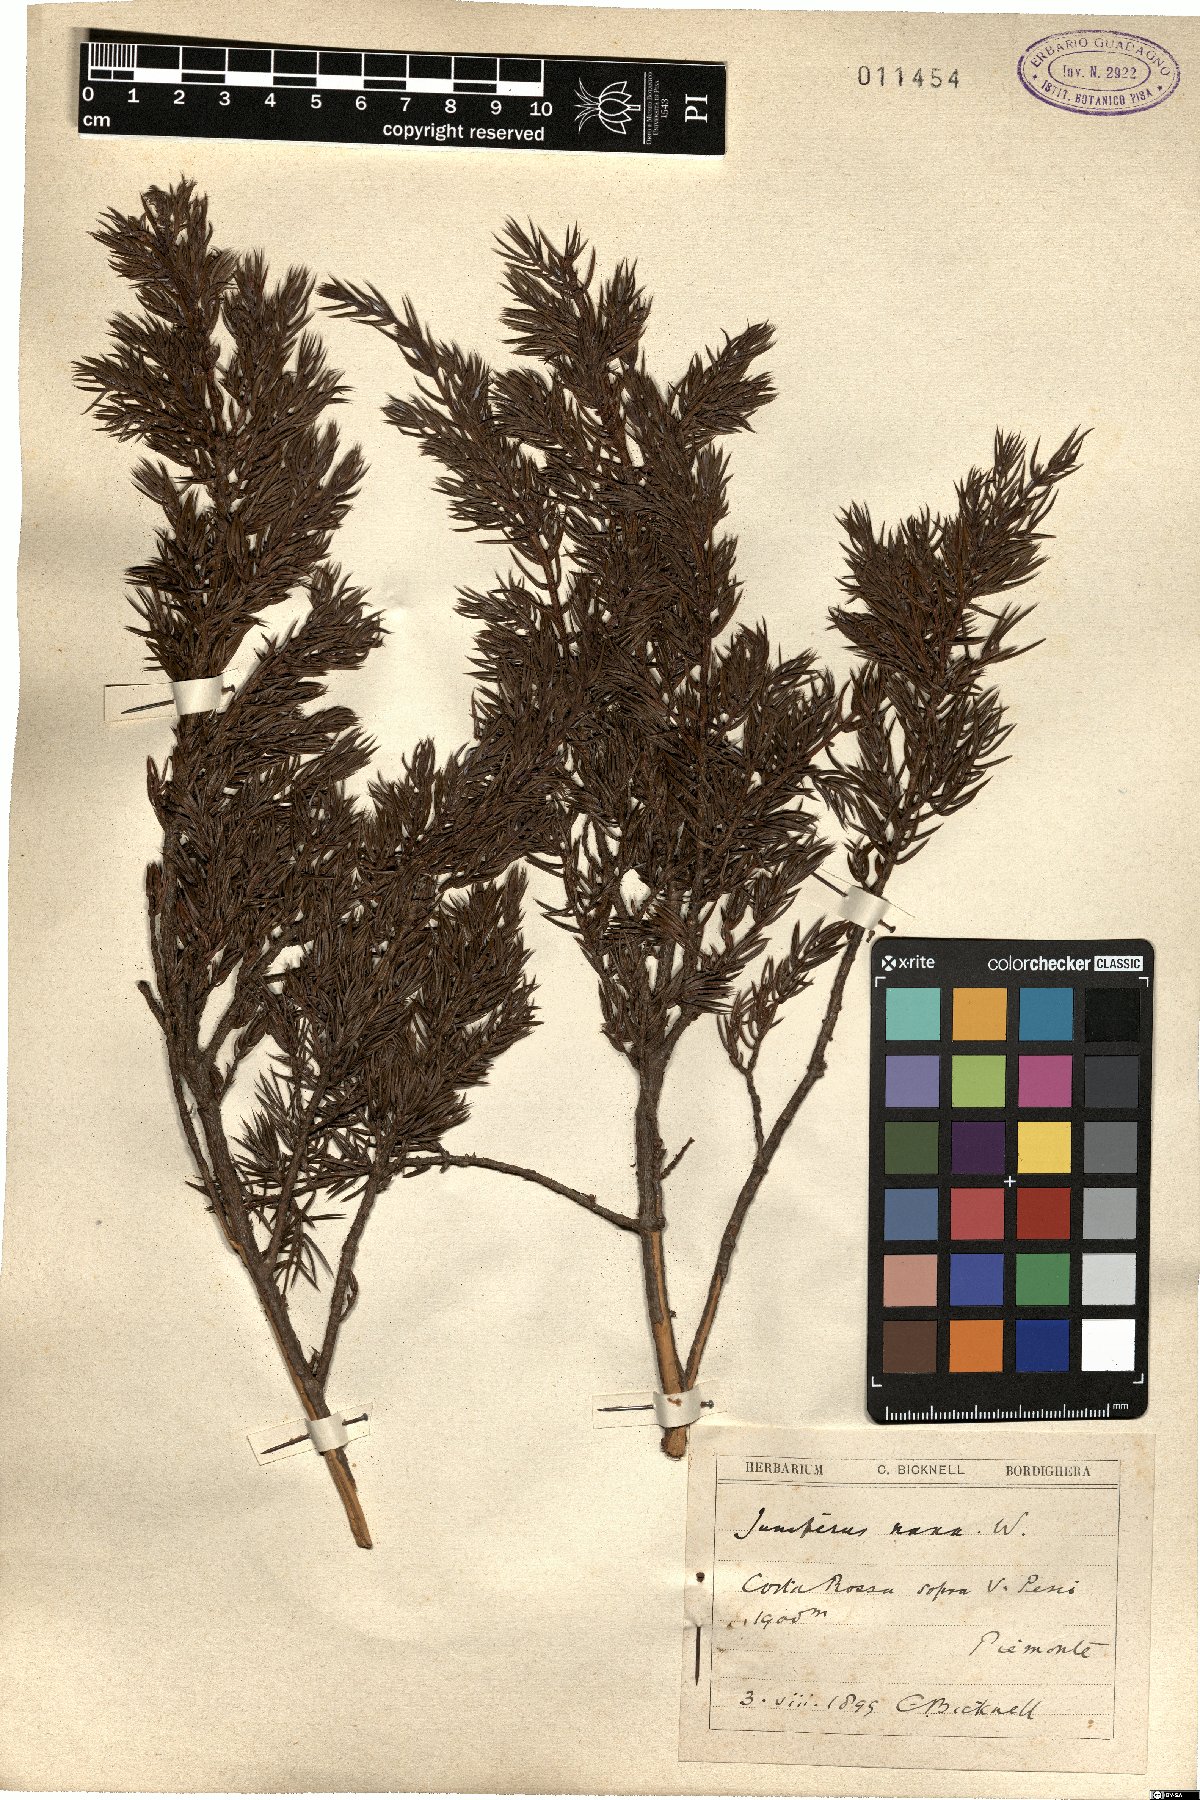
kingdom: Plantae
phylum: Tracheophyta
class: Pinopsida
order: Pinales
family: Cupressaceae
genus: Juniperus
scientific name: Juniperus communis
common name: Common juniper
